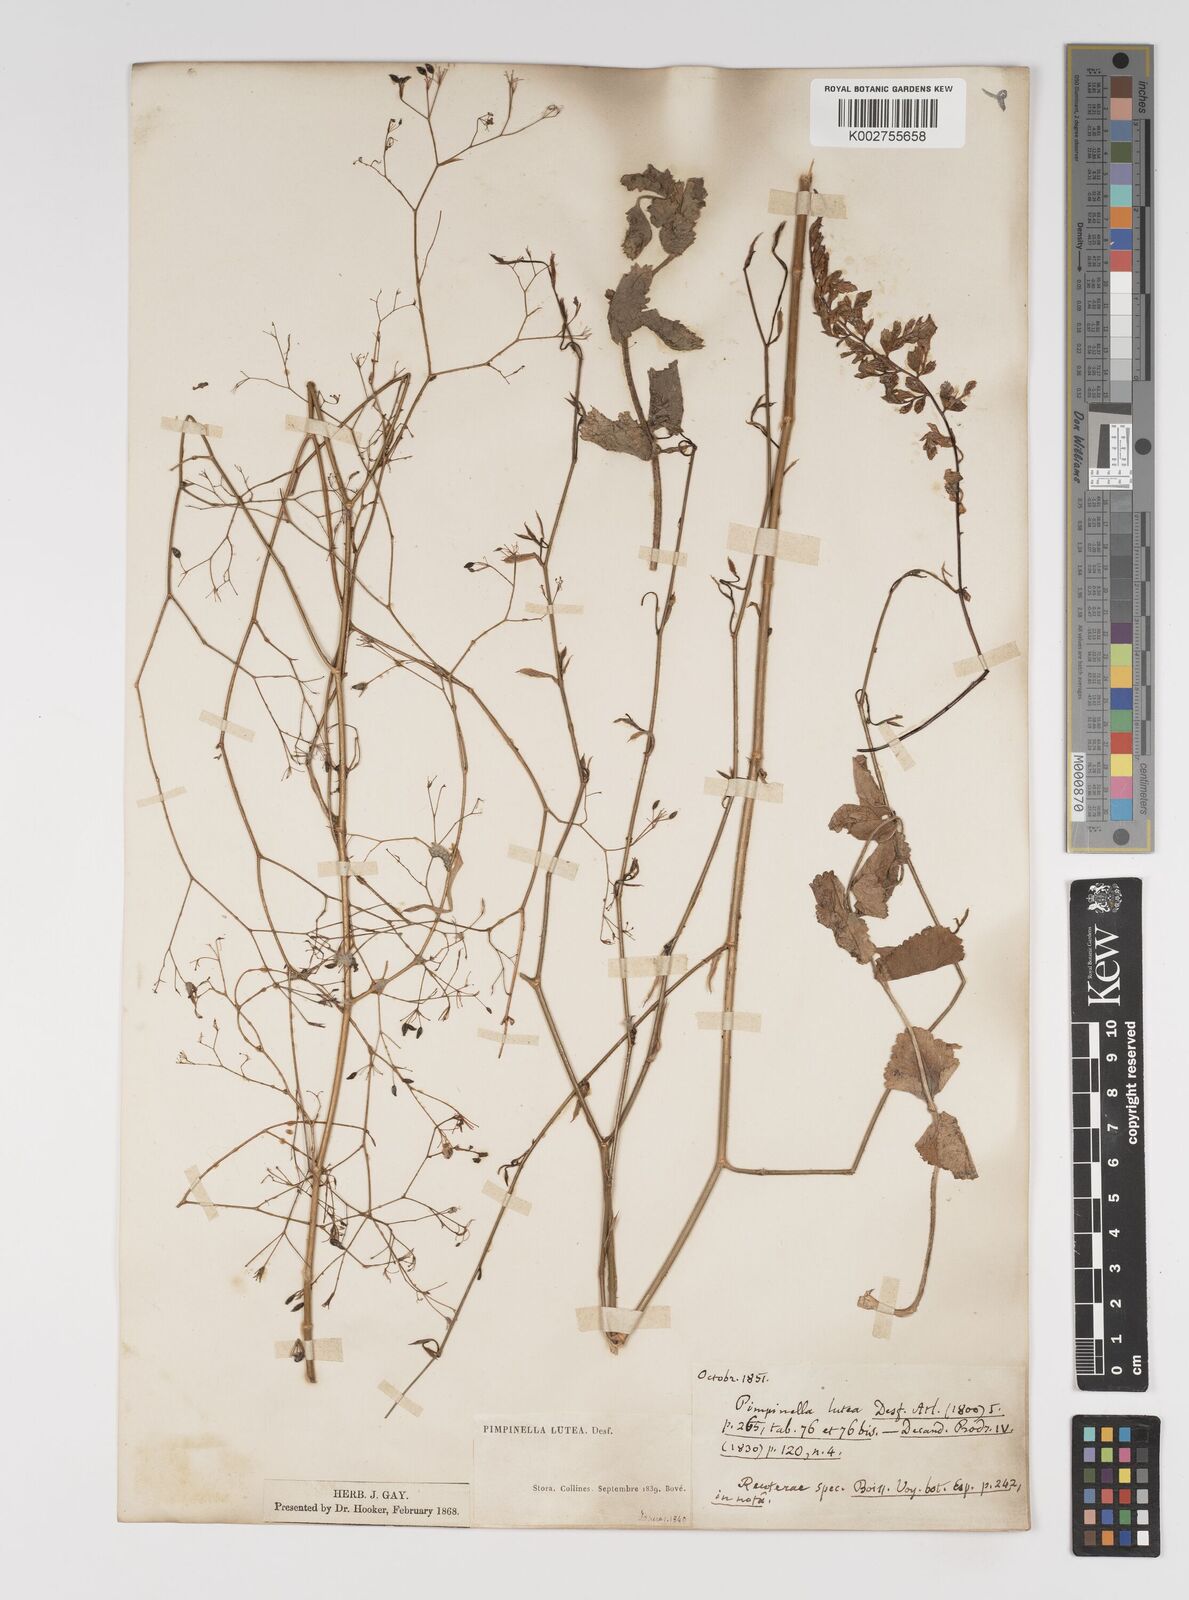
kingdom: Plantae
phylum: Tracheophyta
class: Magnoliopsida
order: Apiales
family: Apiaceae
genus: Pimpinella
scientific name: Pimpinella
